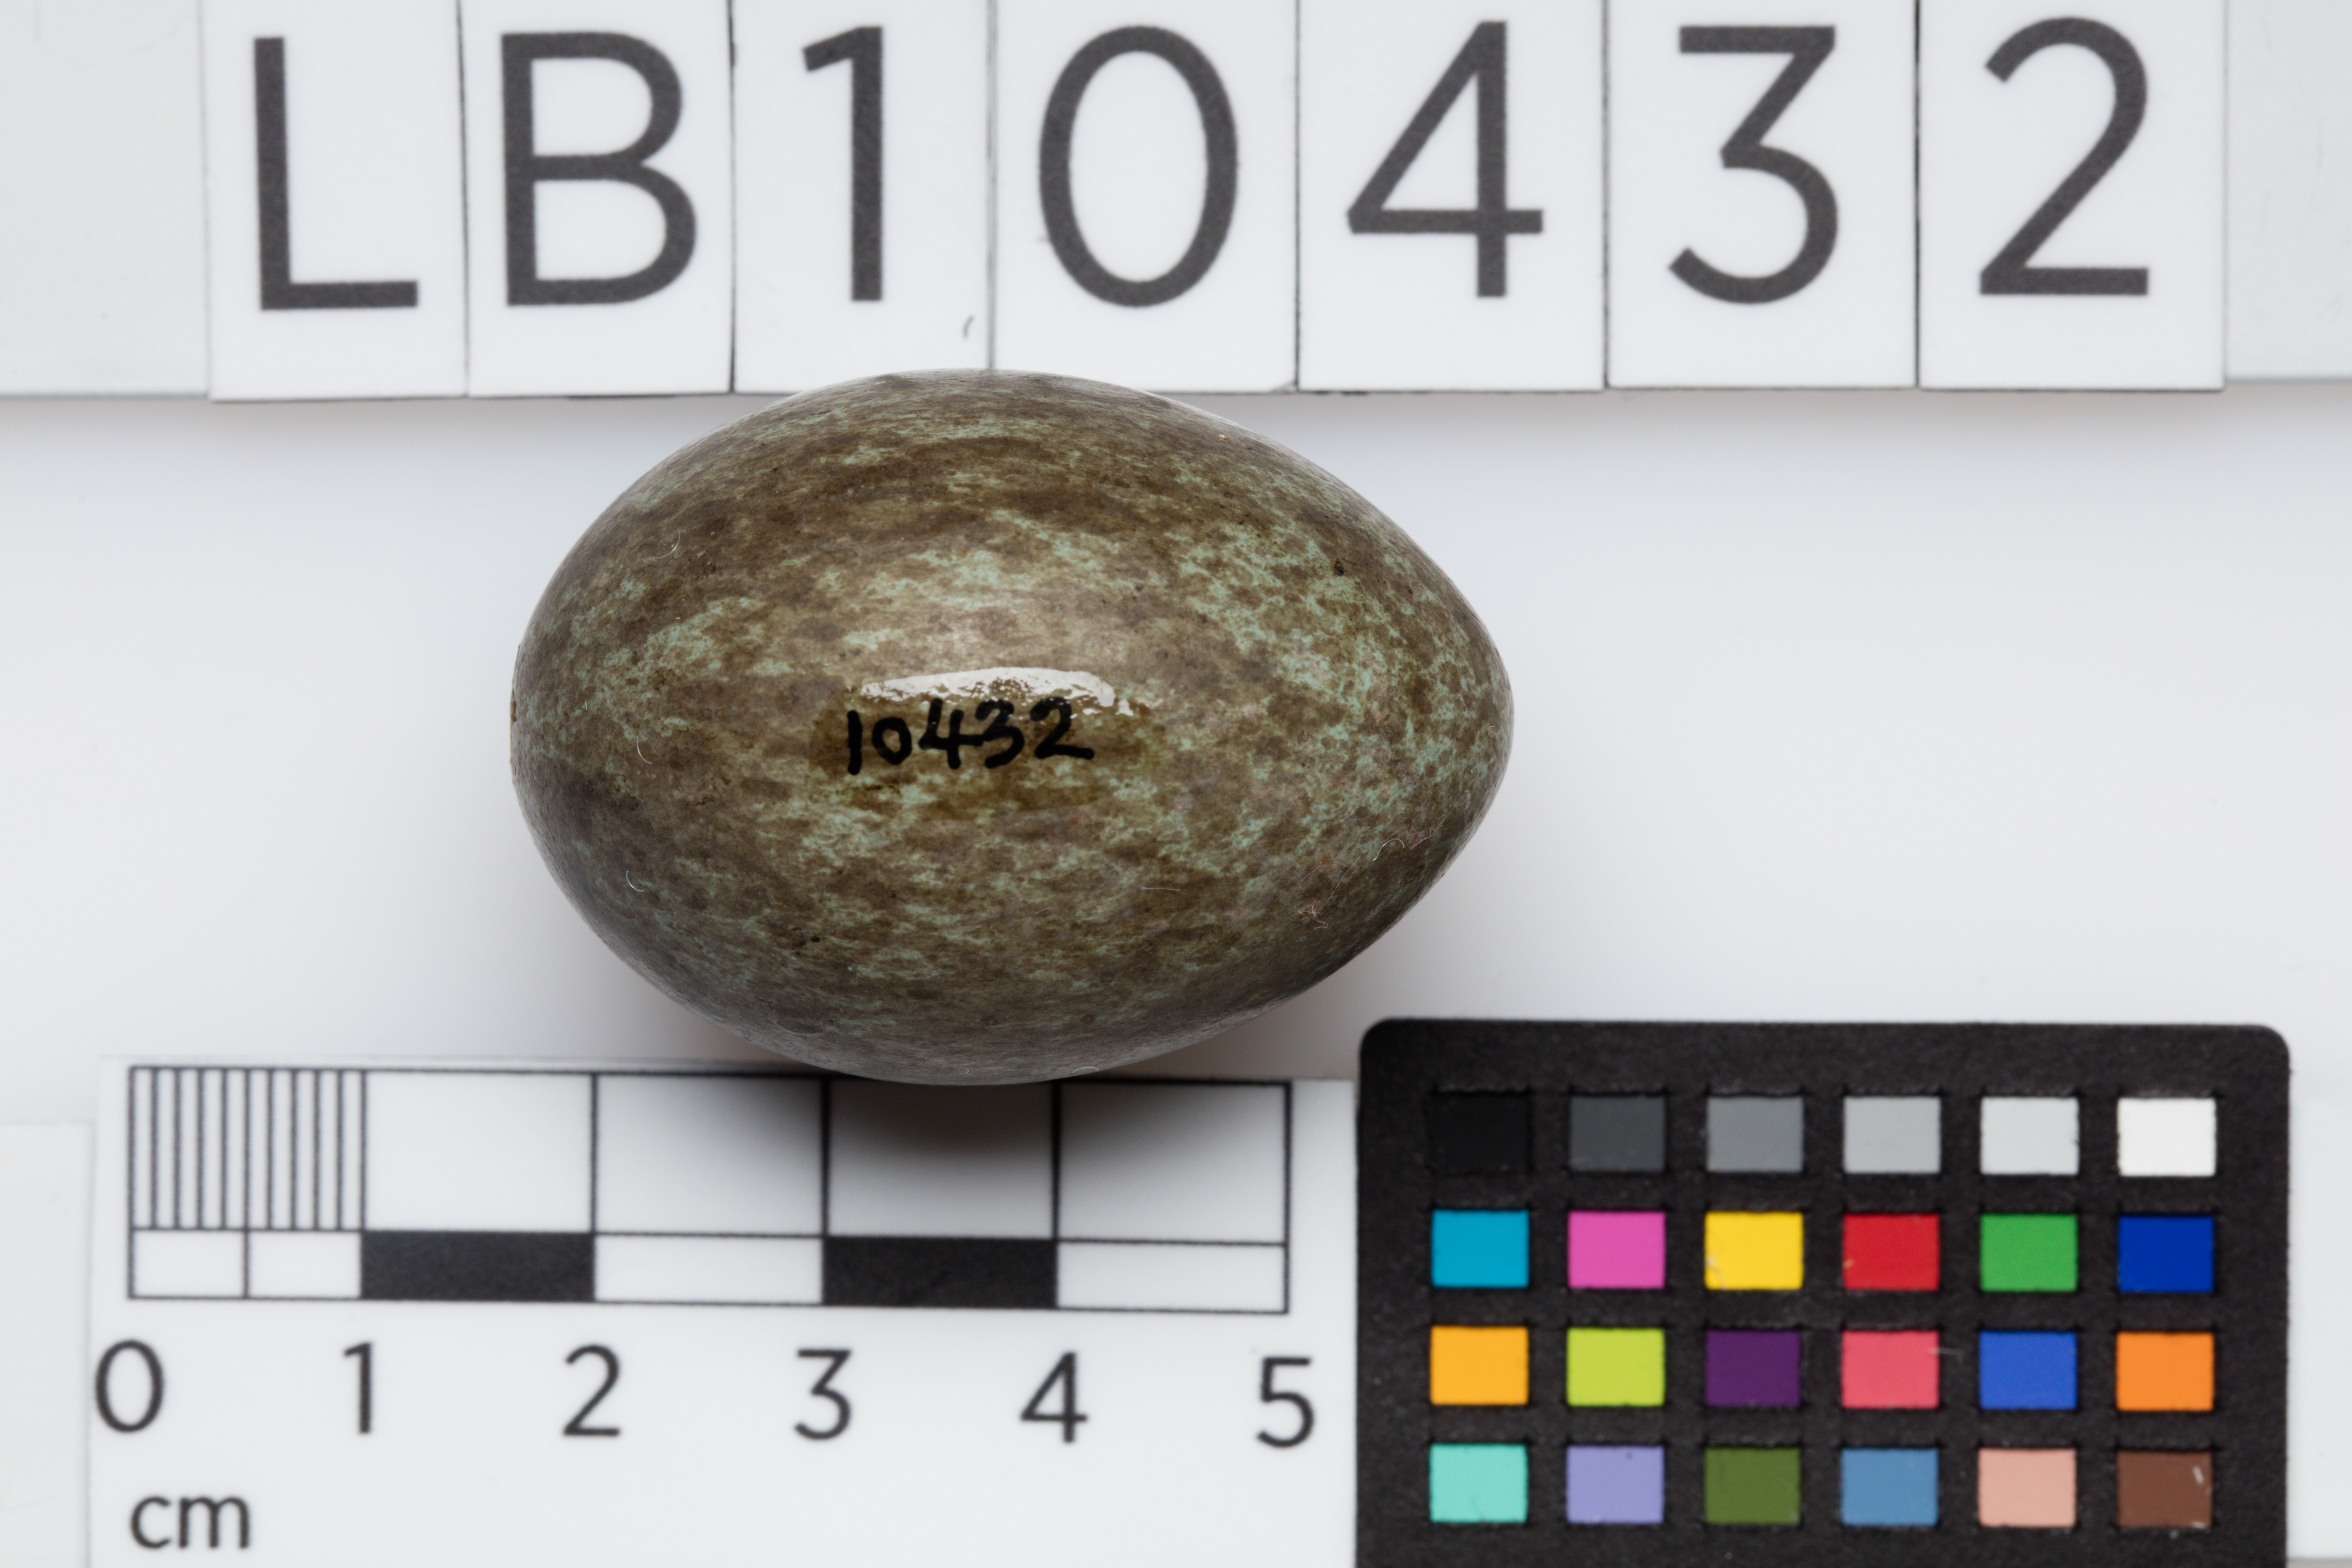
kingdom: Animalia
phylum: Chordata
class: Aves
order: Passeriformes
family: Corvidae
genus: Corvus
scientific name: Corvus corone
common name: Carrion crow
